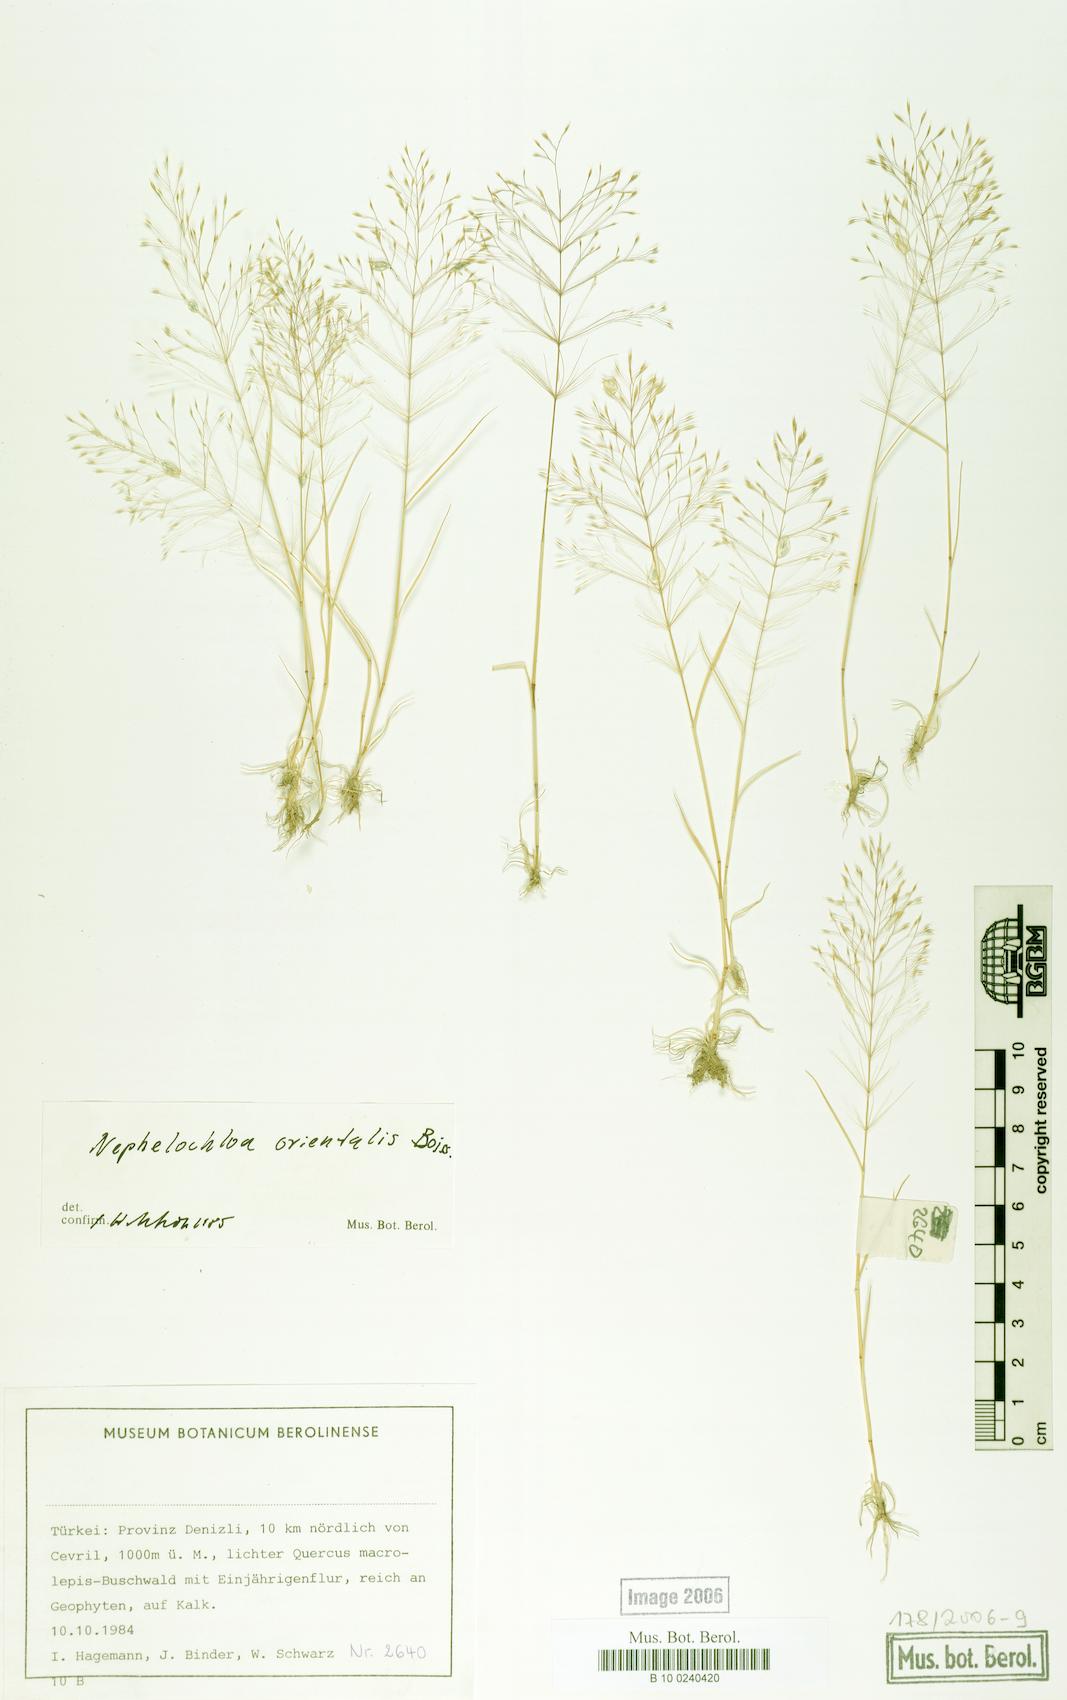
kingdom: Plantae
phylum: Tracheophyta
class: Liliopsida
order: Poales
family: Poaceae
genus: Nephelochloa
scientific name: Nephelochloa orientalis
